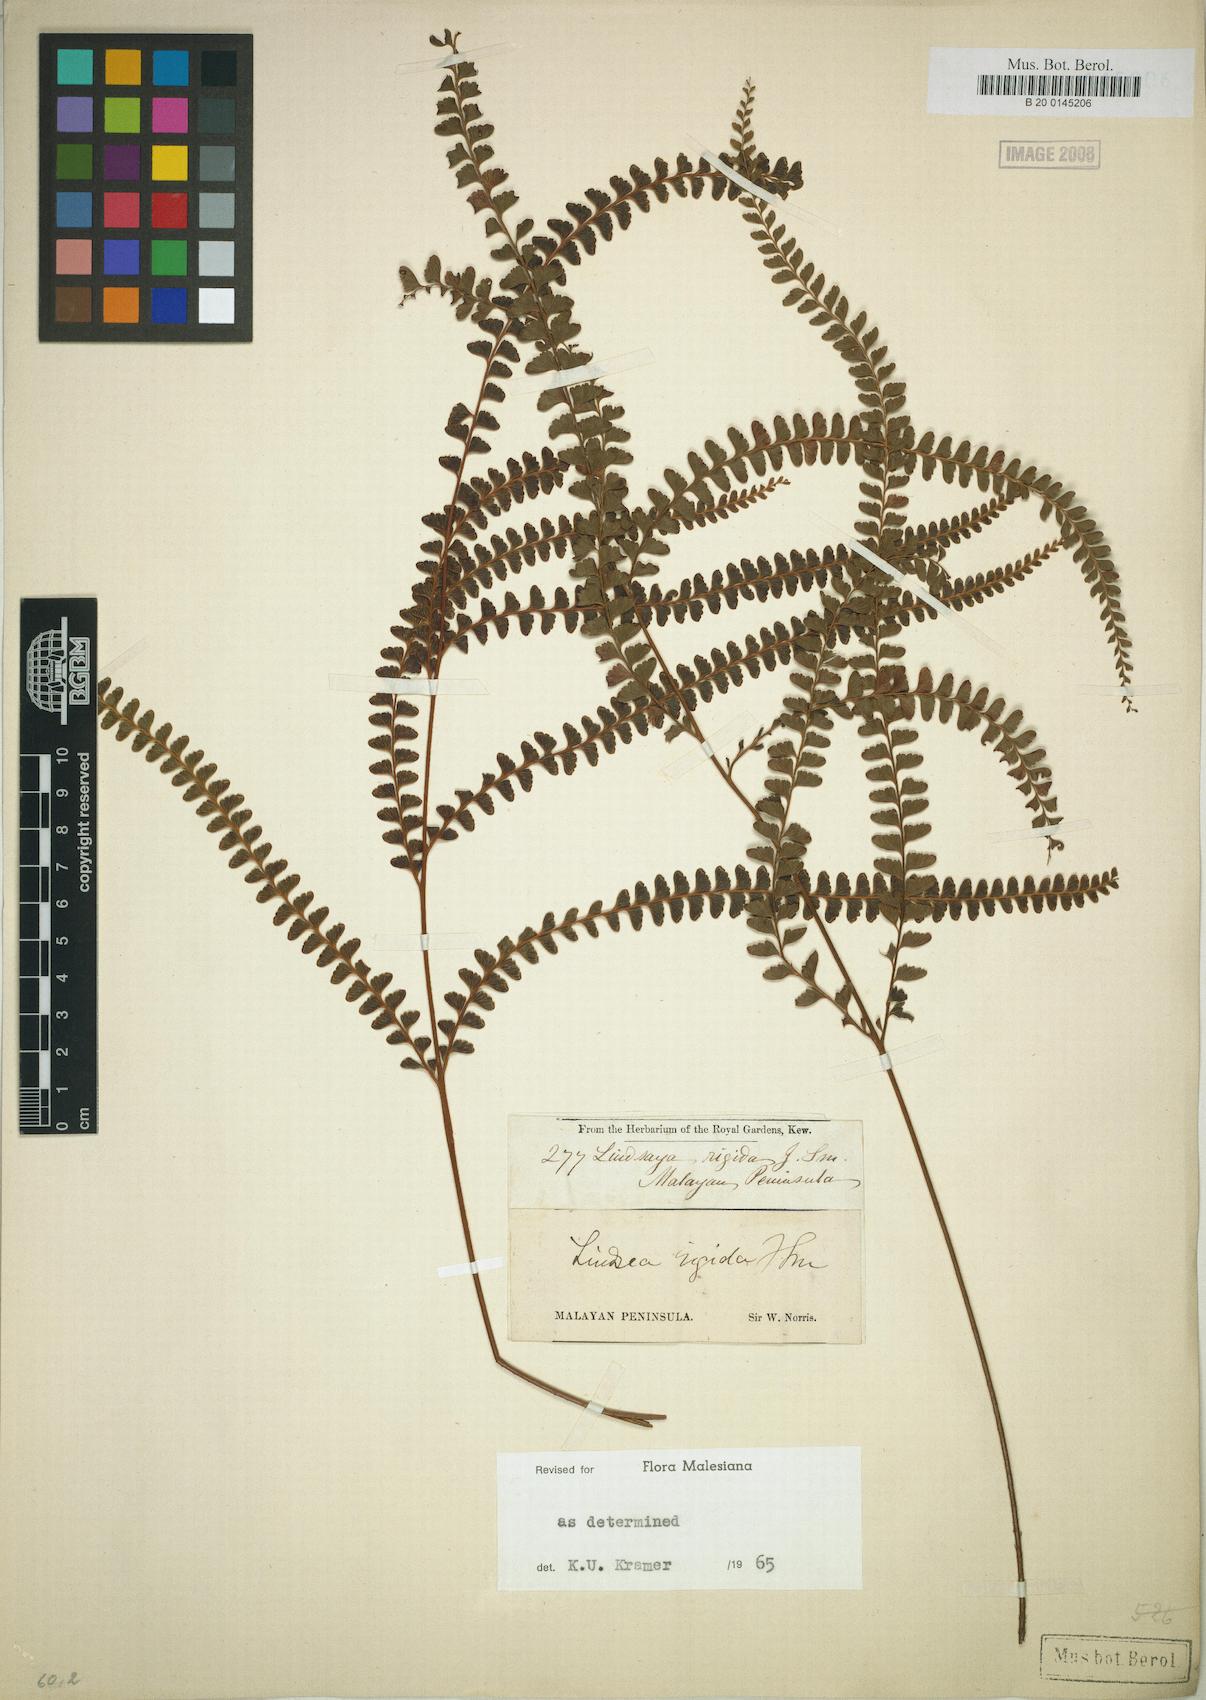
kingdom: Plantae
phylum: Tracheophyta
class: Polypodiopsida
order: Polypodiales
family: Lindsaeaceae
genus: Lindsaea
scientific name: Lindsaea rigida
